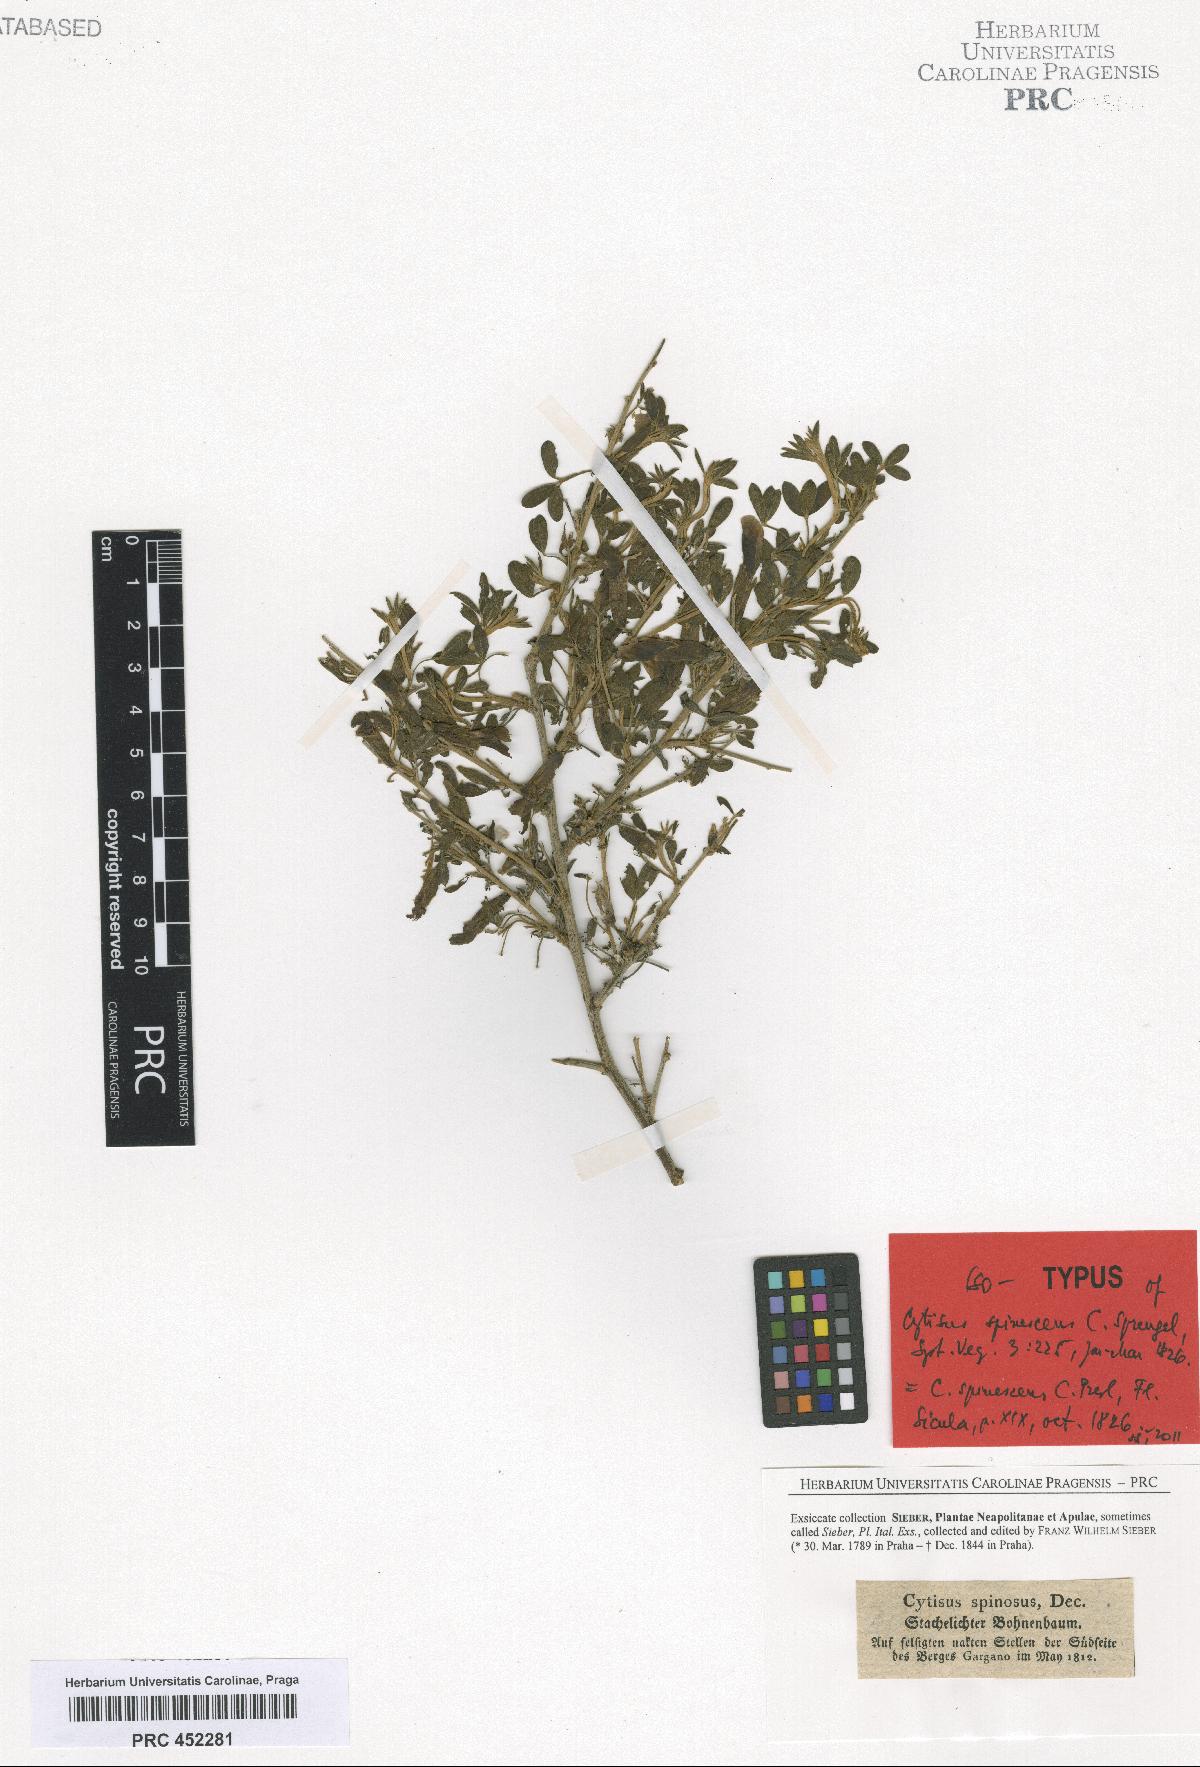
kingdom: Plantae
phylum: Tracheophyta
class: Magnoliopsida
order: Fabales
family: Fabaceae
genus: Chamaecytisus
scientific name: Chamaecytisus spinescens
